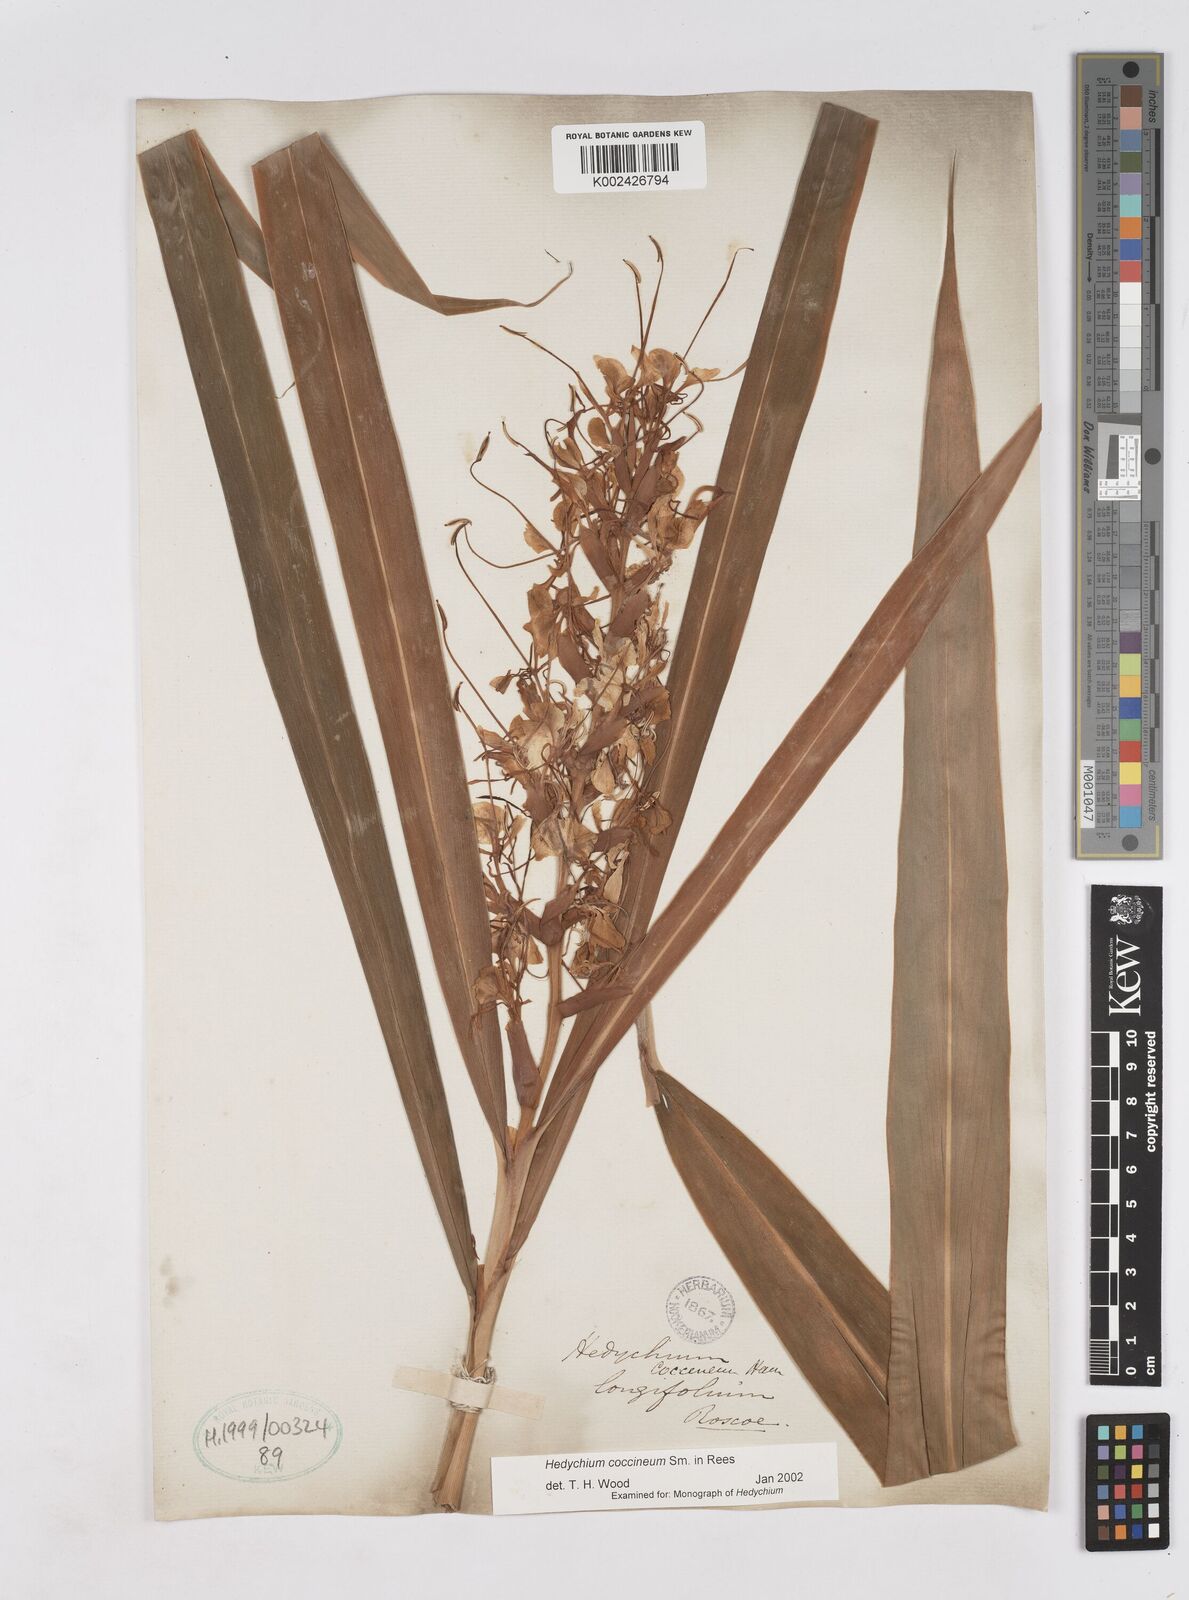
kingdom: Plantae
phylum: Tracheophyta
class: Liliopsida
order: Zingiberales
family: Zingiberaceae
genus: Hedychium
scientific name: Hedychium coccineum
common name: Red ginger-lily
